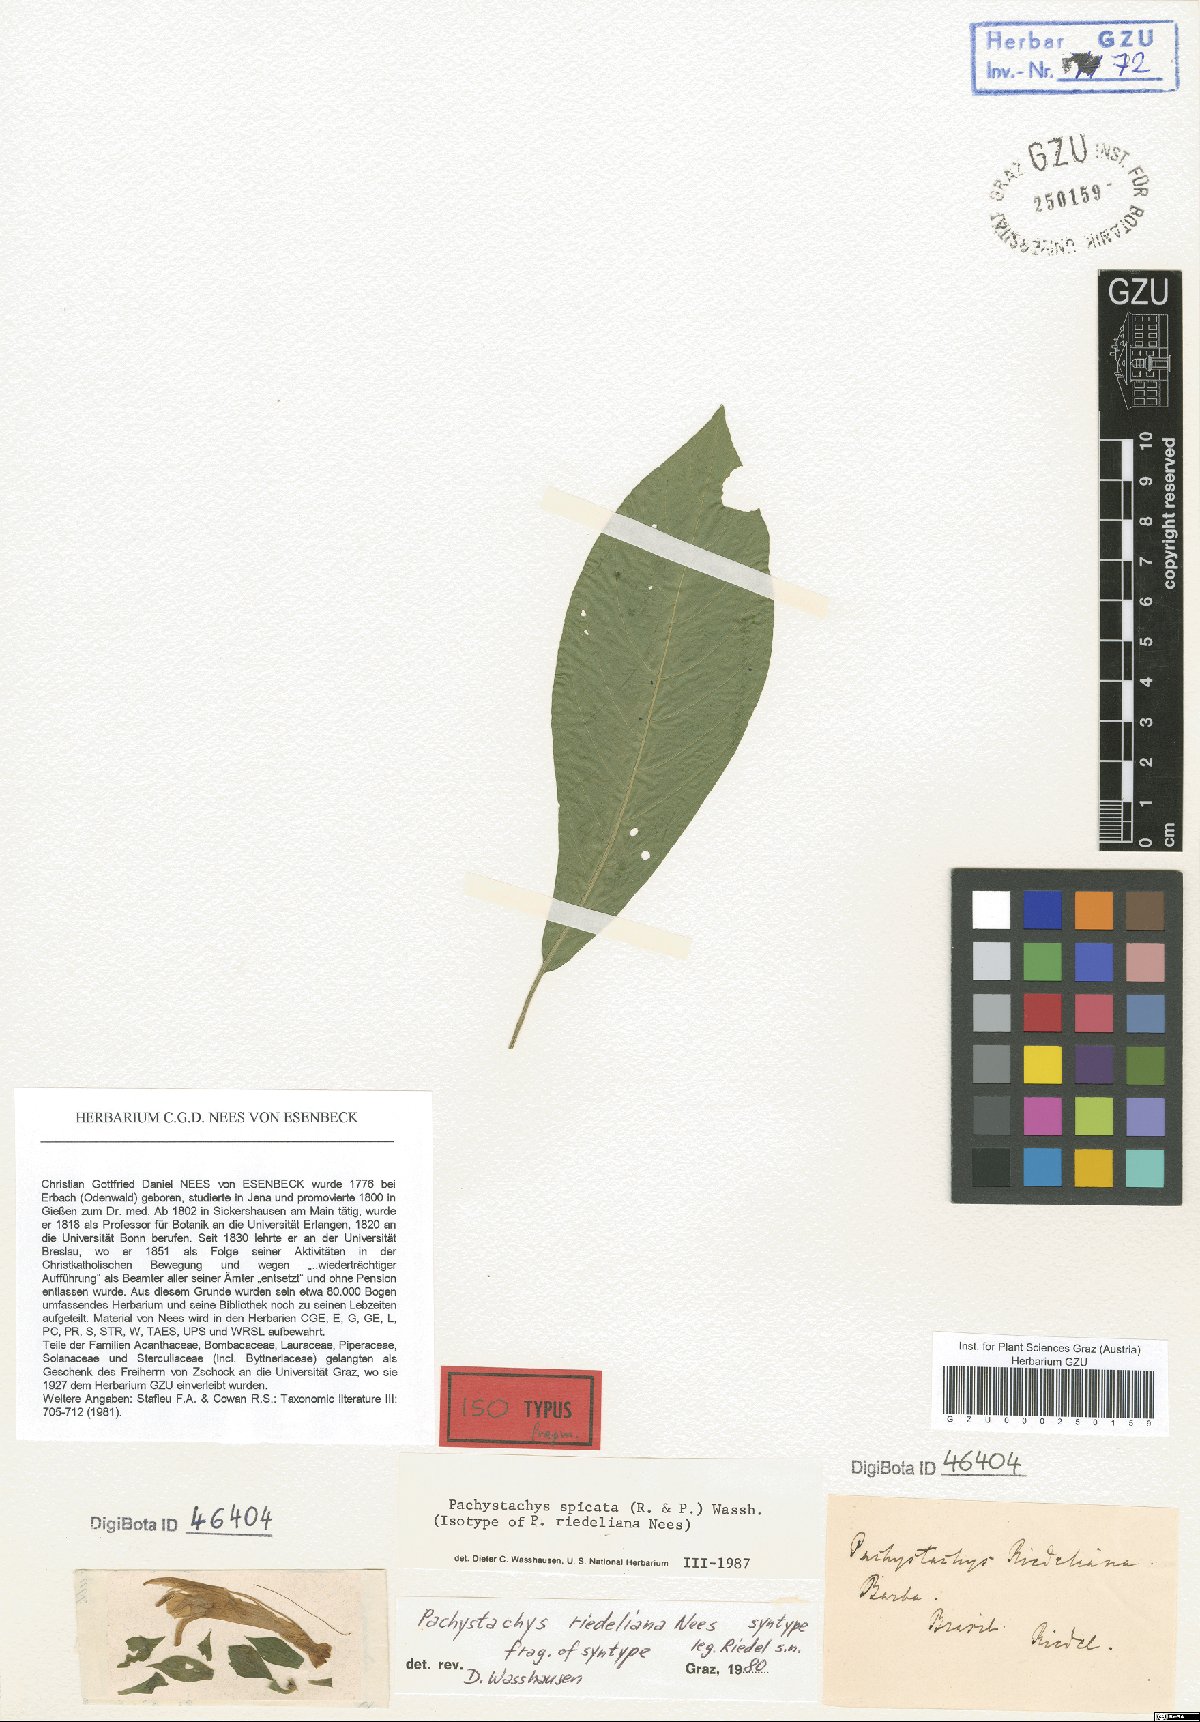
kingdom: Plantae
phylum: Tracheophyta
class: Magnoliopsida
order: Lamiales
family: Acanthaceae
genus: Pachystachys
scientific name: Pachystachys spicata
